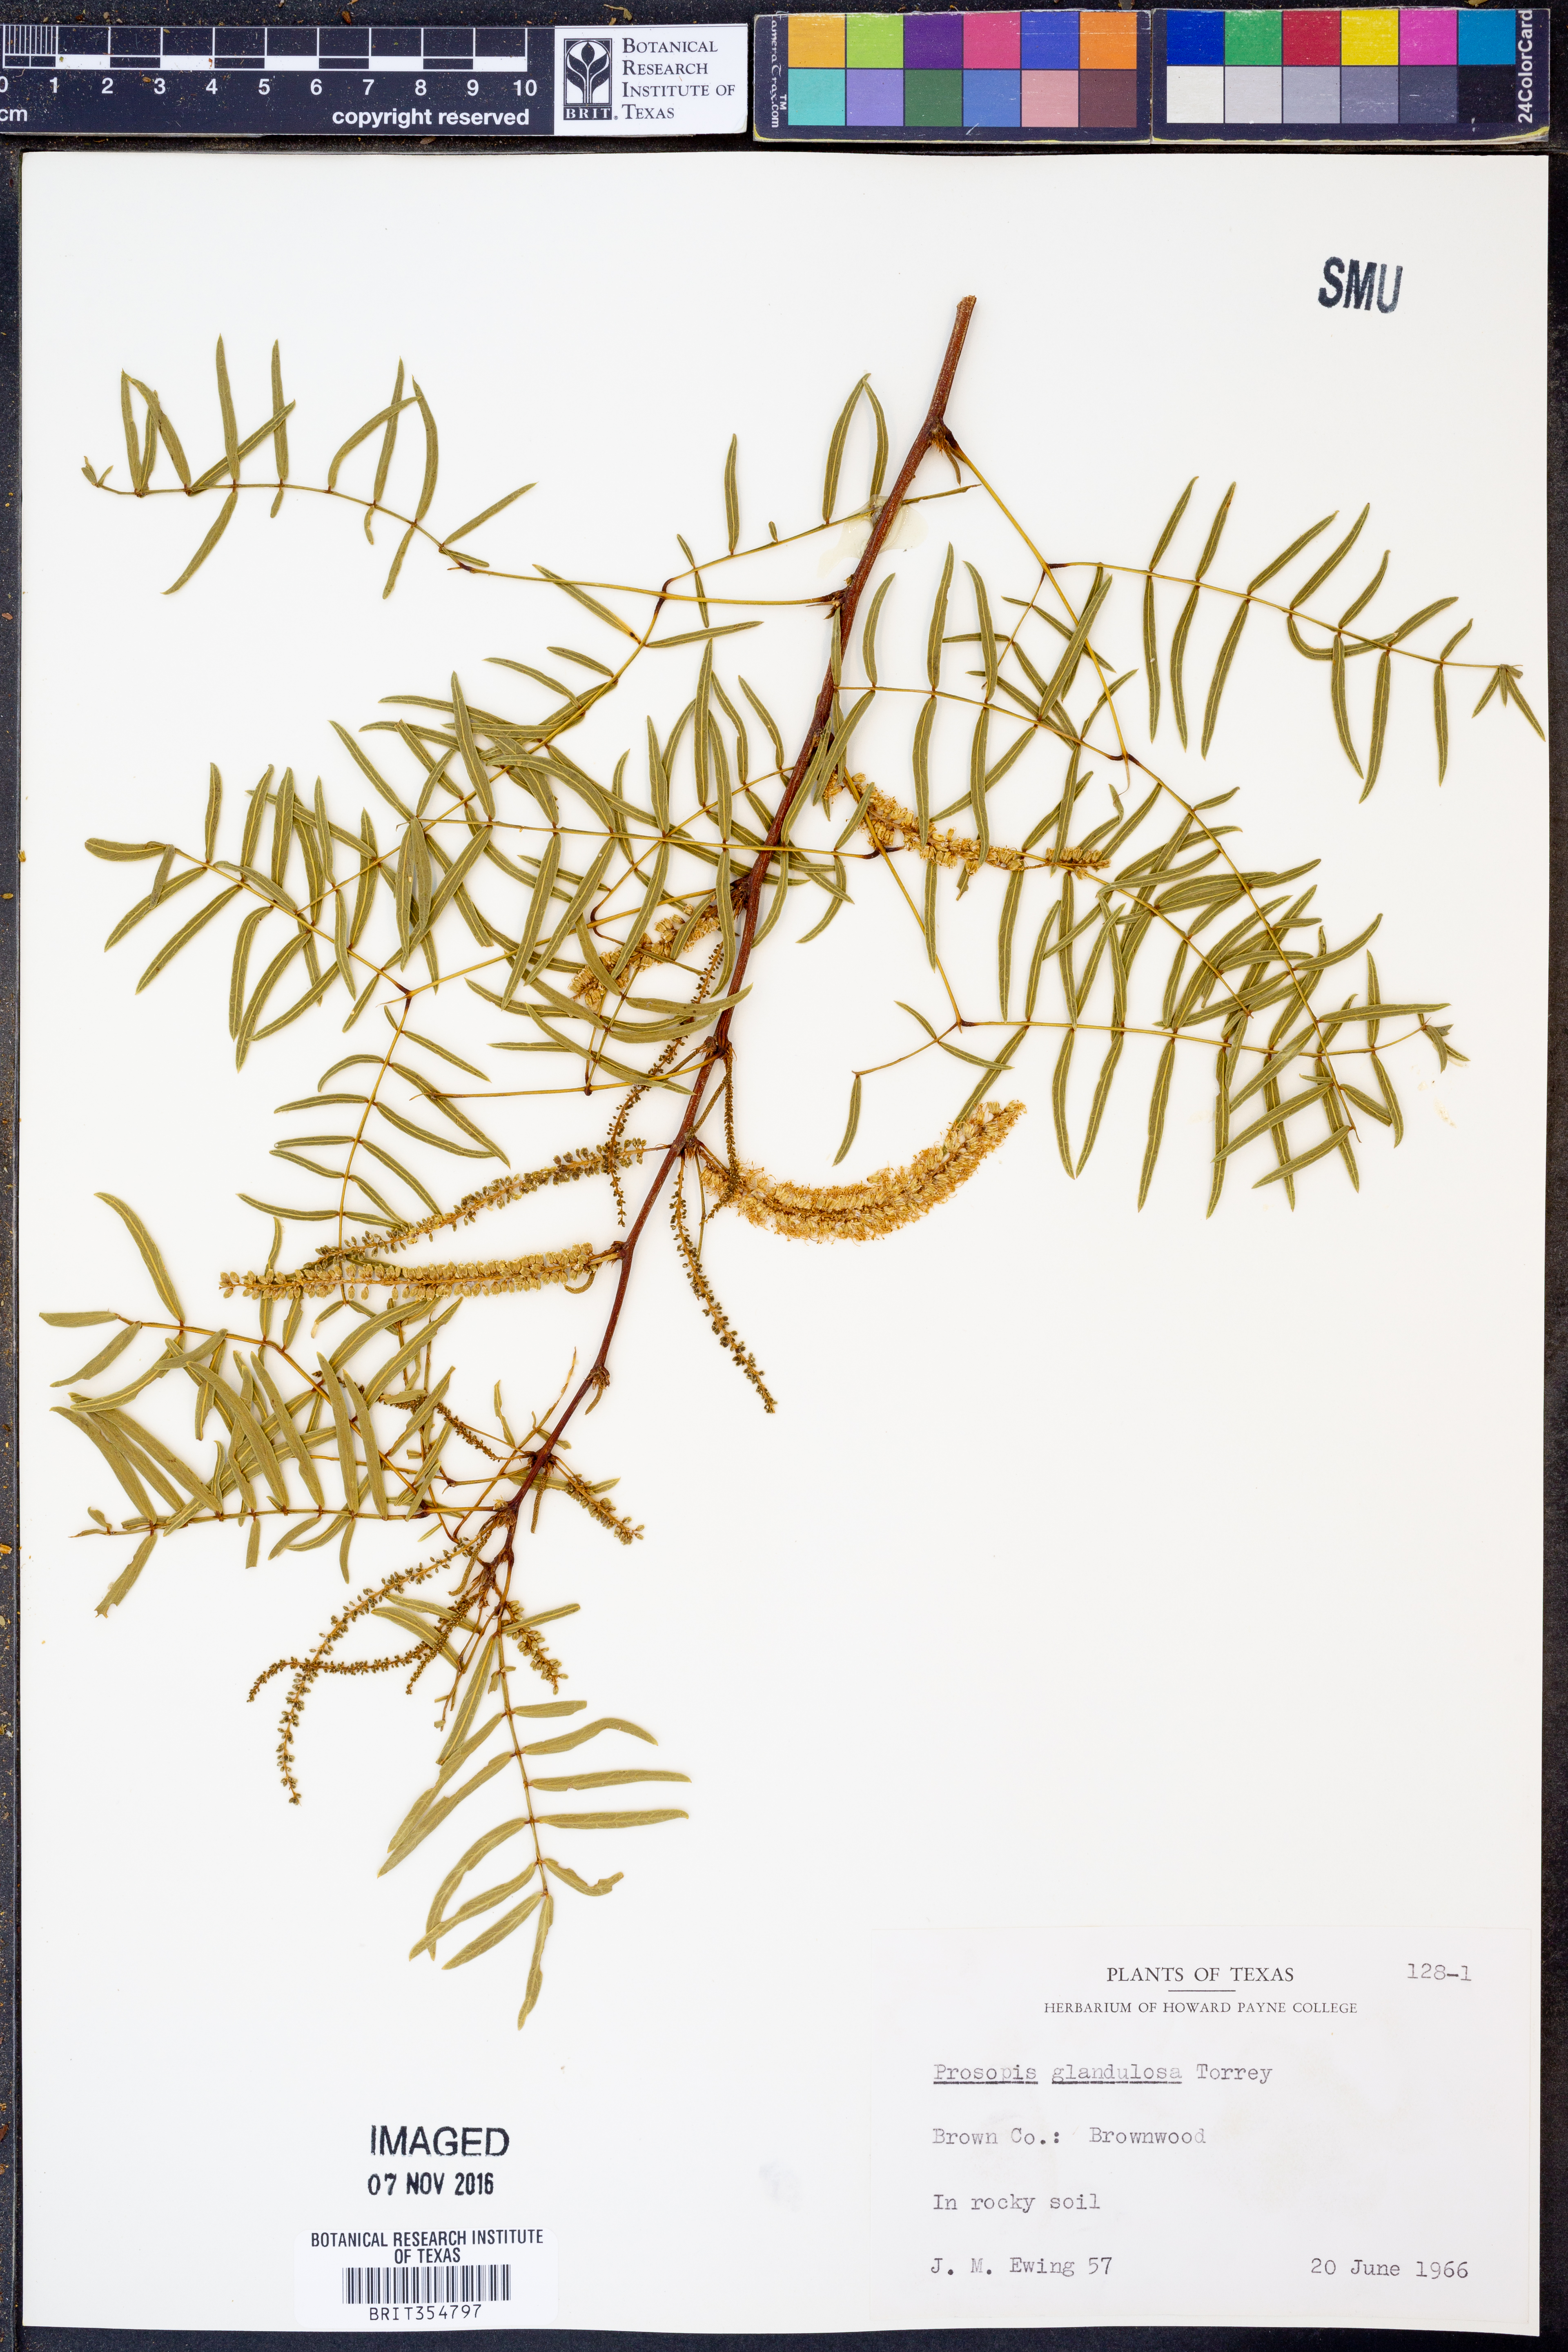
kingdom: Plantae
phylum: Tracheophyta
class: Magnoliopsida
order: Fabales
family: Fabaceae
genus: Prosopis
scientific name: Prosopis glandulosa
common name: Honey mesquite
